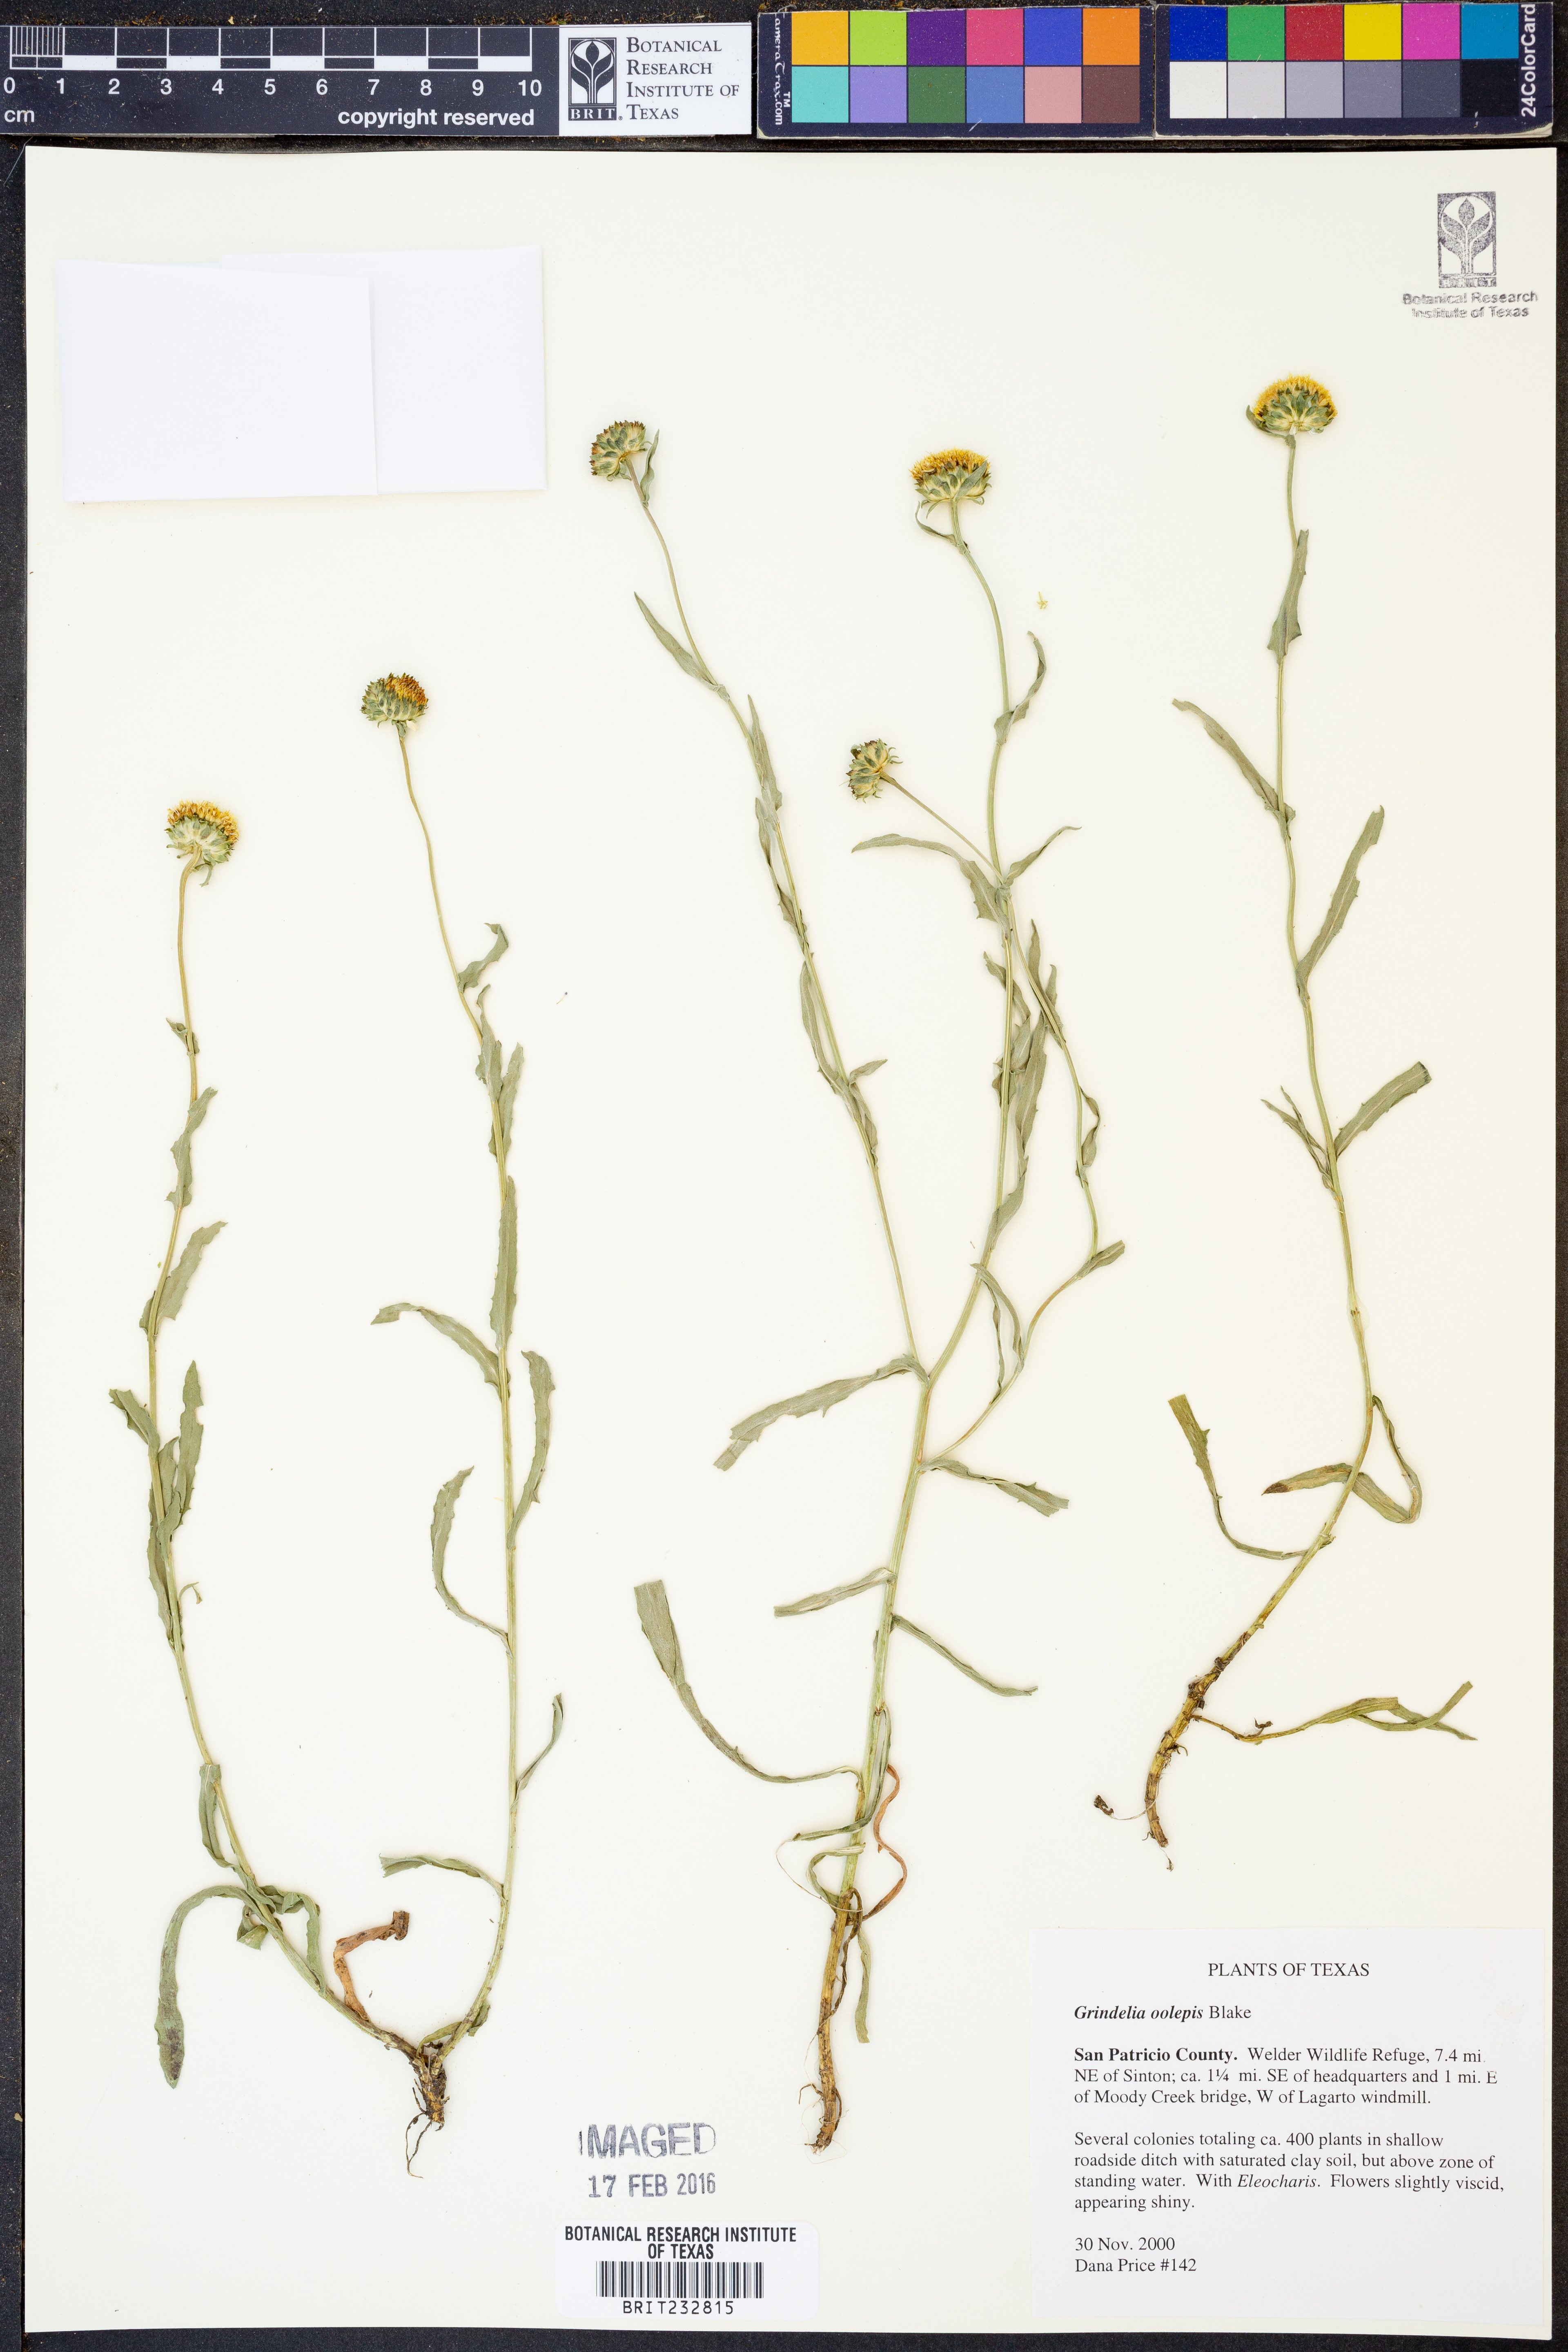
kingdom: Plantae
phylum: Tracheophyta
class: Magnoliopsida
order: Asterales
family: Asteraceae
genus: Grindelia
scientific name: Grindelia oolepis
